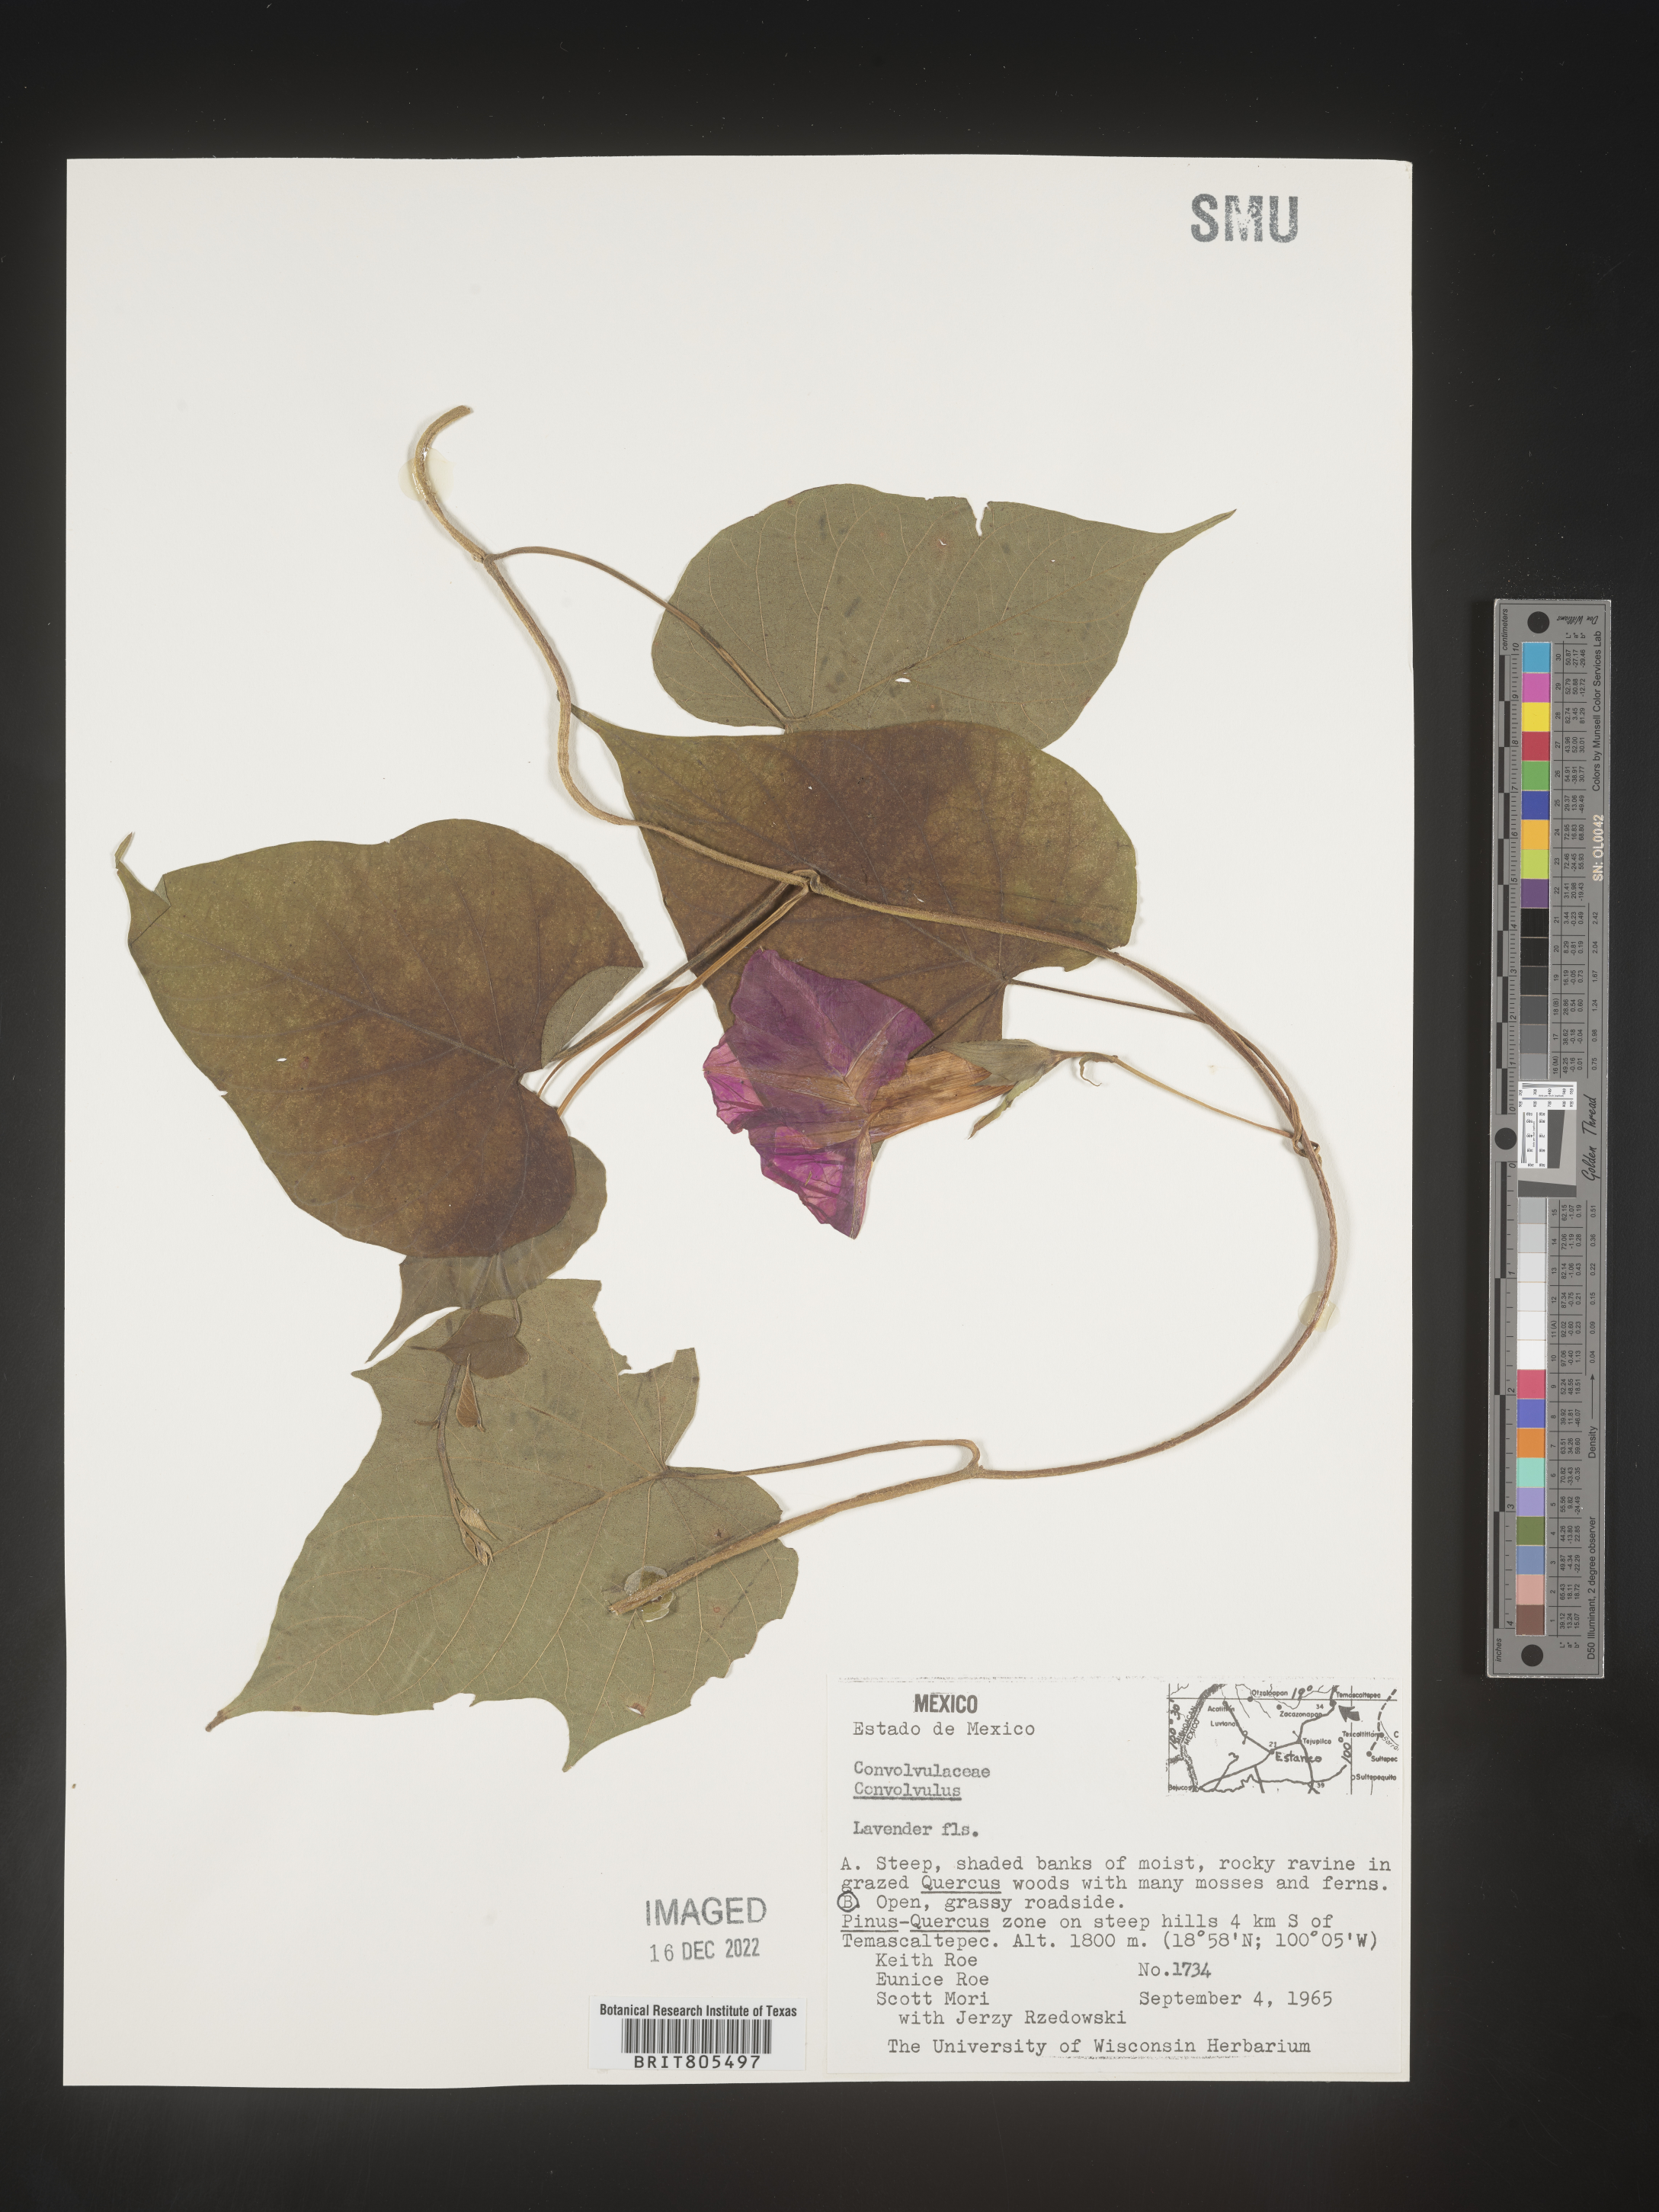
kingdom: Plantae
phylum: Tracheophyta
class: Magnoliopsida
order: Solanales
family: Convolvulaceae
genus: Ipomoea
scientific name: Ipomoea
